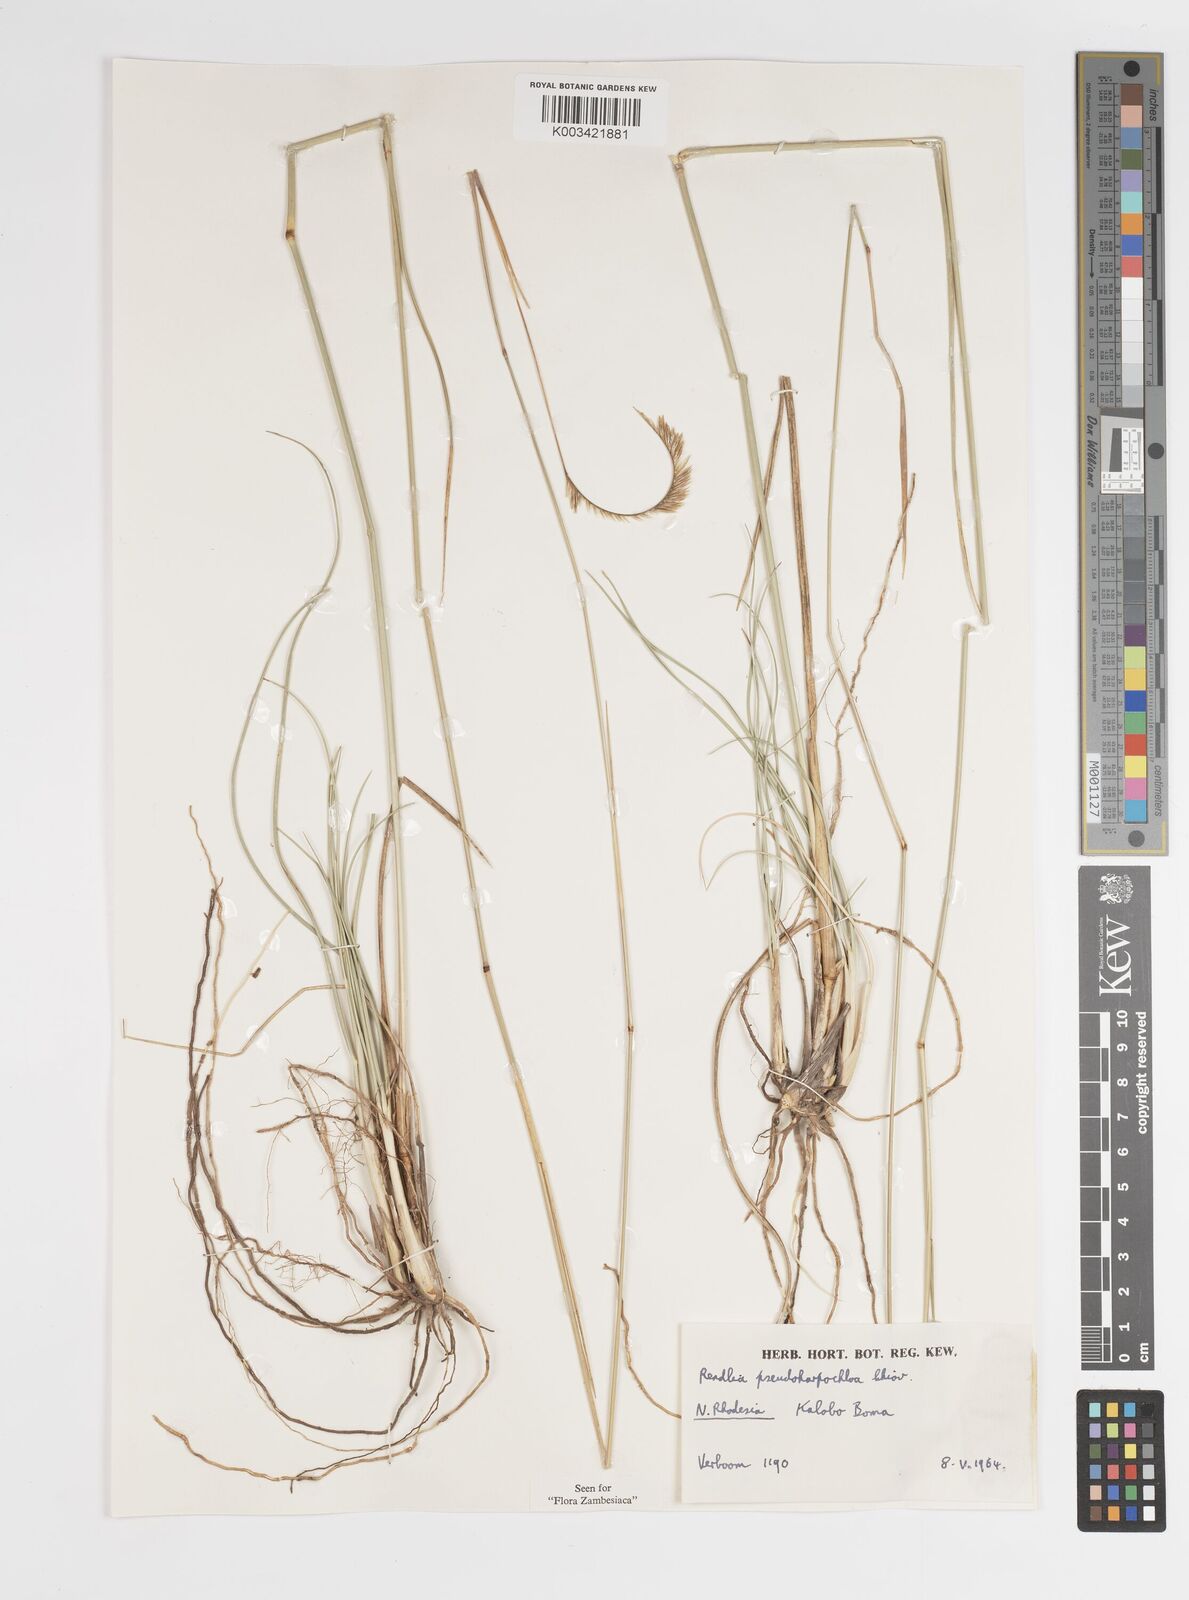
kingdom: Plantae
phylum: Tracheophyta
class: Liliopsida
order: Poales
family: Poaceae
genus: Harpochloa
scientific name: Harpochloa pseudoharpechloa
